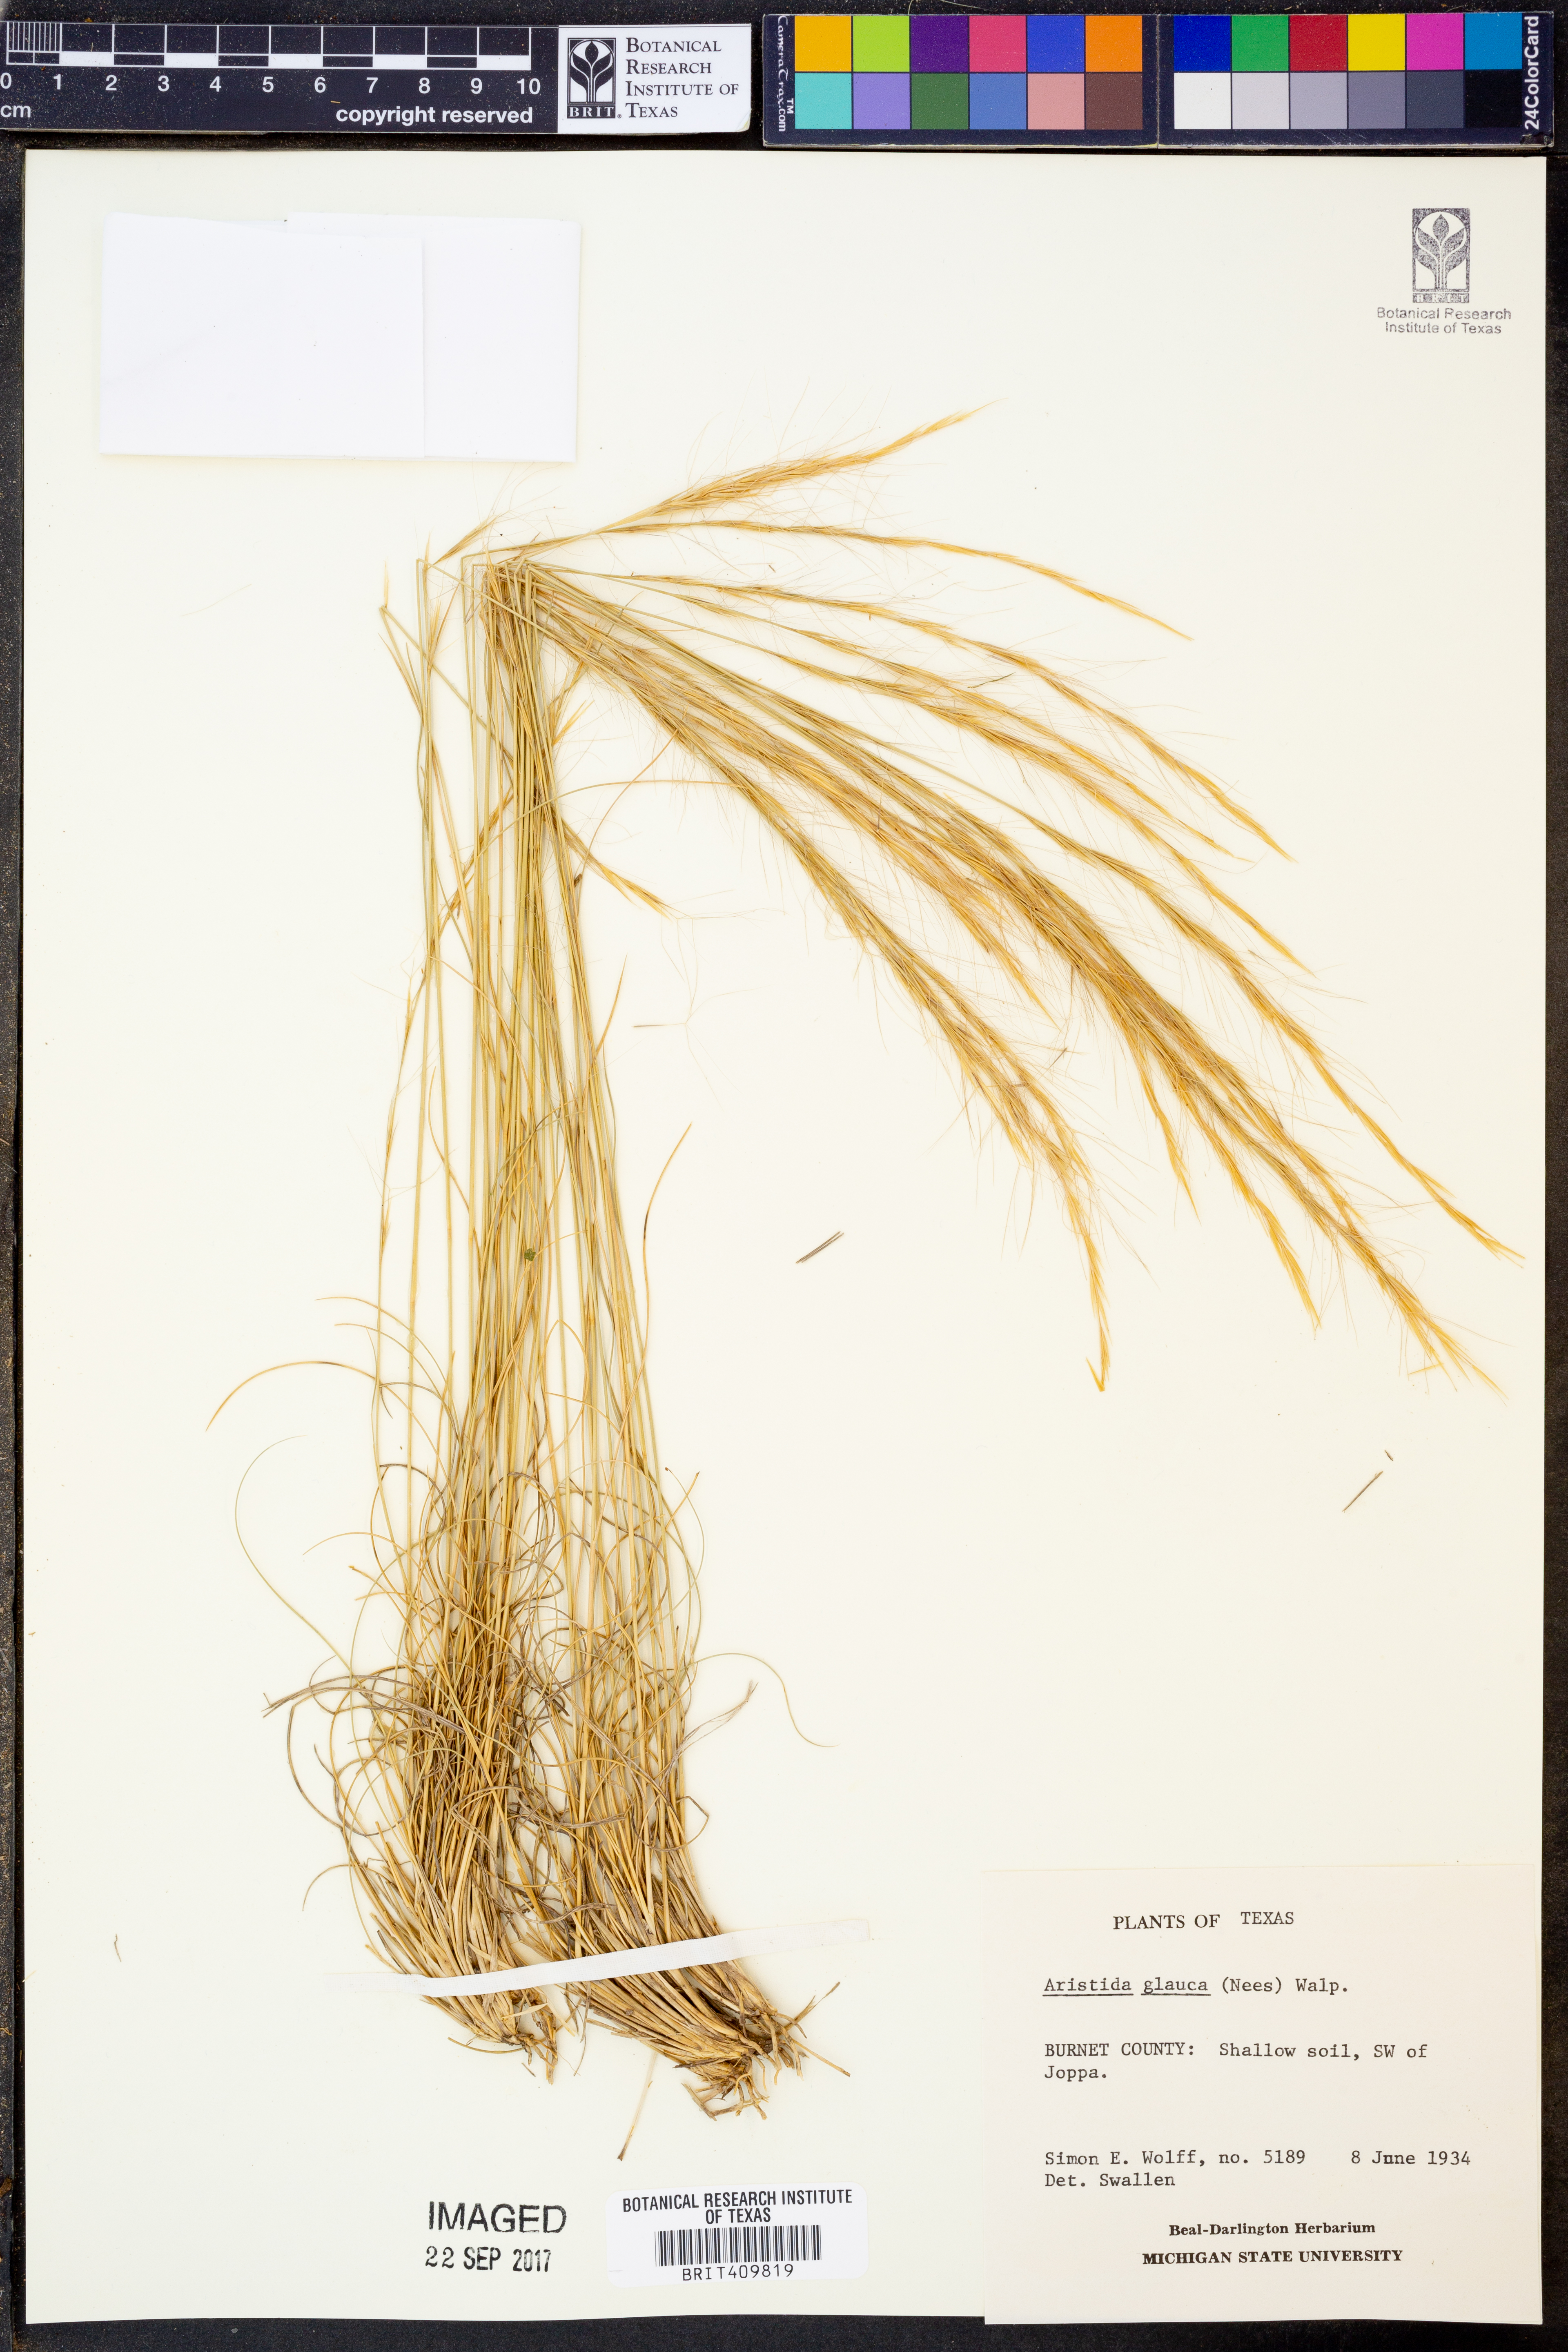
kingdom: Plantae
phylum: Tracheophyta
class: Liliopsida
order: Poales
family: Poaceae
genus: Aristida
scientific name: Aristida glauca
